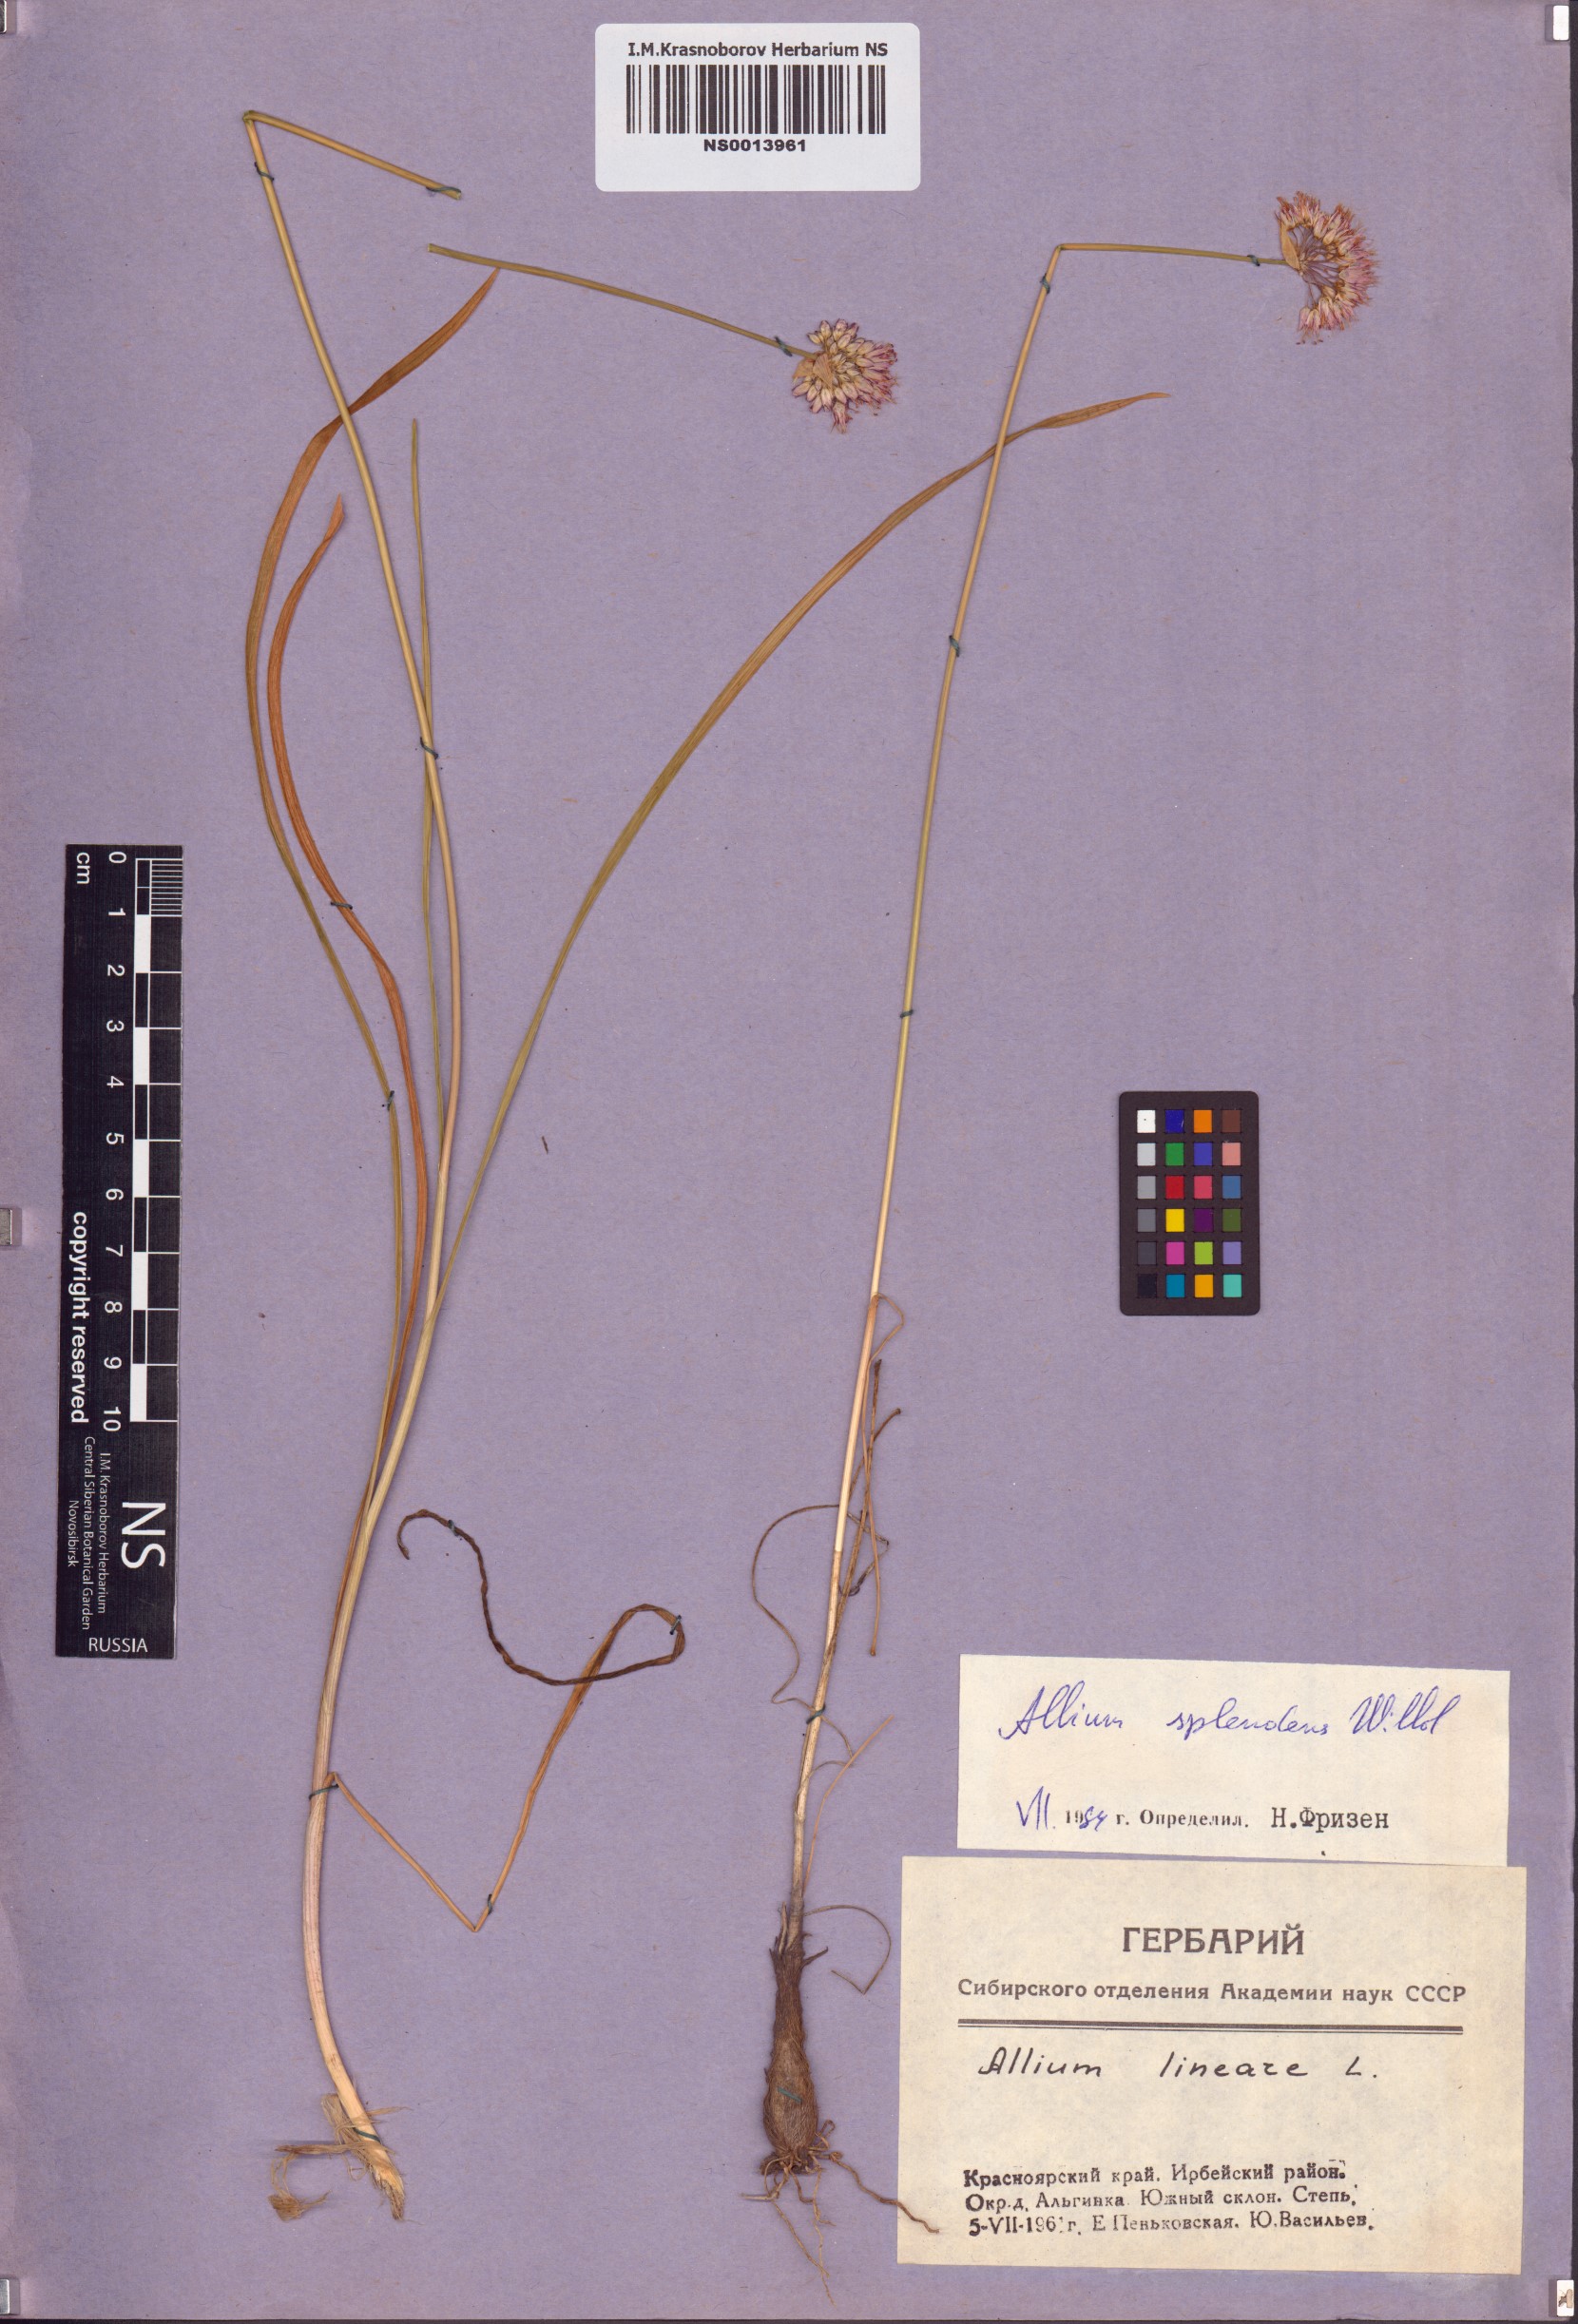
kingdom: Plantae
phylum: Tracheophyta
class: Liliopsida
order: Asparagales
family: Amaryllidaceae
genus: Allium
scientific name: Allium splendens
